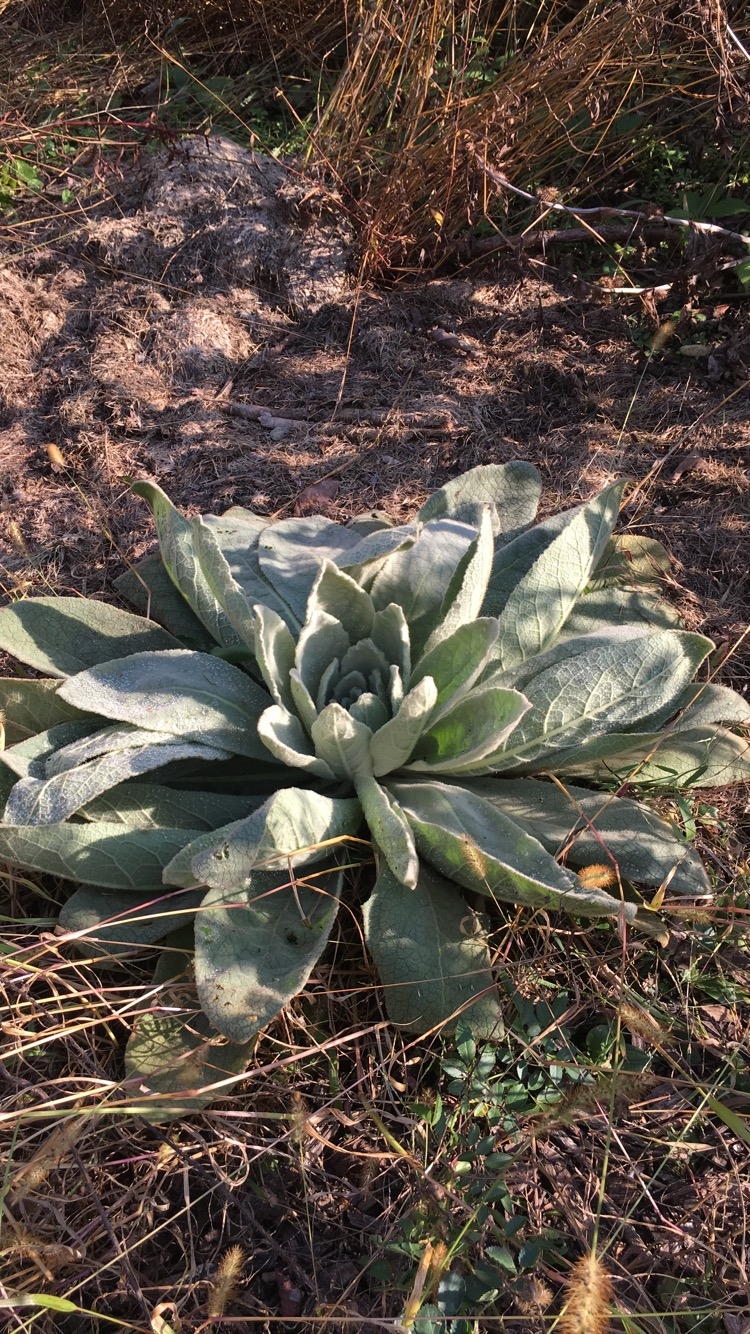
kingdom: Plantae
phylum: Tracheophyta
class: Magnoliopsida
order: Lamiales
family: Scrophulariaceae
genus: Verbascum
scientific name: Verbascum thapsus
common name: Mullein
